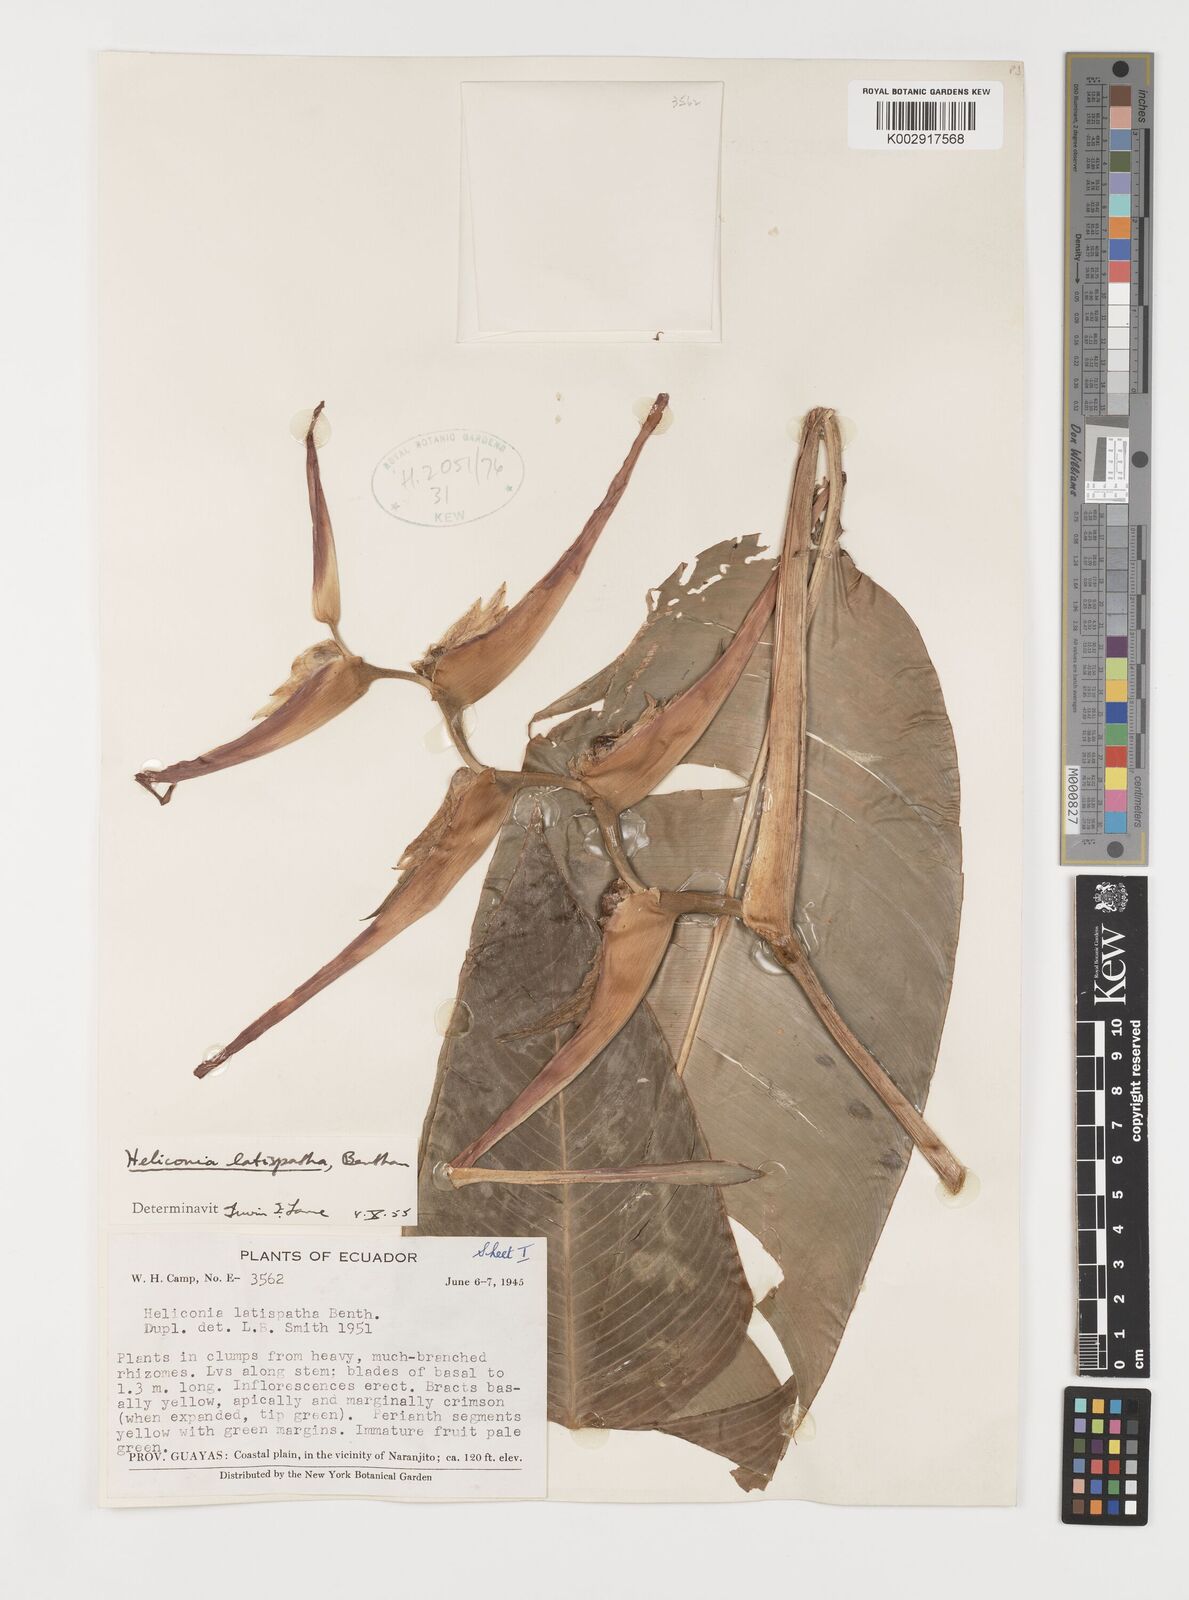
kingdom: Plantae
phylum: Tracheophyta
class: Liliopsida
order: Zingiberales
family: Heliconiaceae
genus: Heliconia
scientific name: Heliconia latispatha
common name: Expanded lobsterclaw
